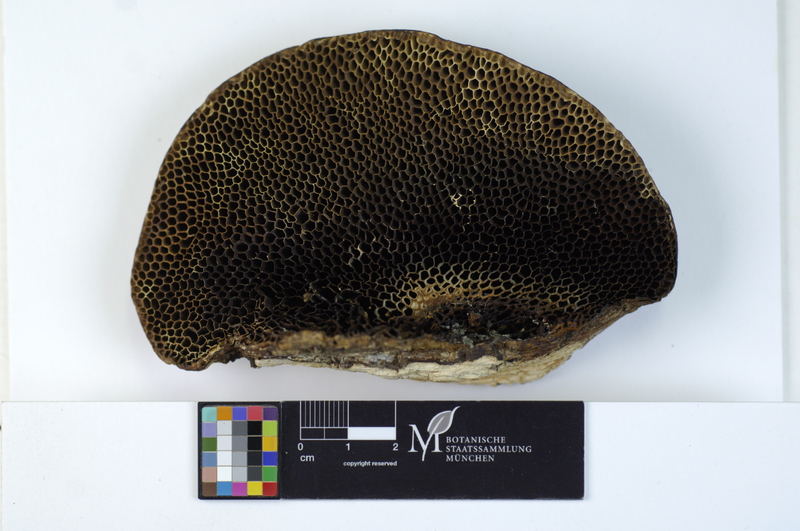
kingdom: Plantae
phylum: Tracheophyta
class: Magnoliopsida
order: Fagales
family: Fagaceae
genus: Quercus
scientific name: Quercus ilex
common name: Evergreen oak
